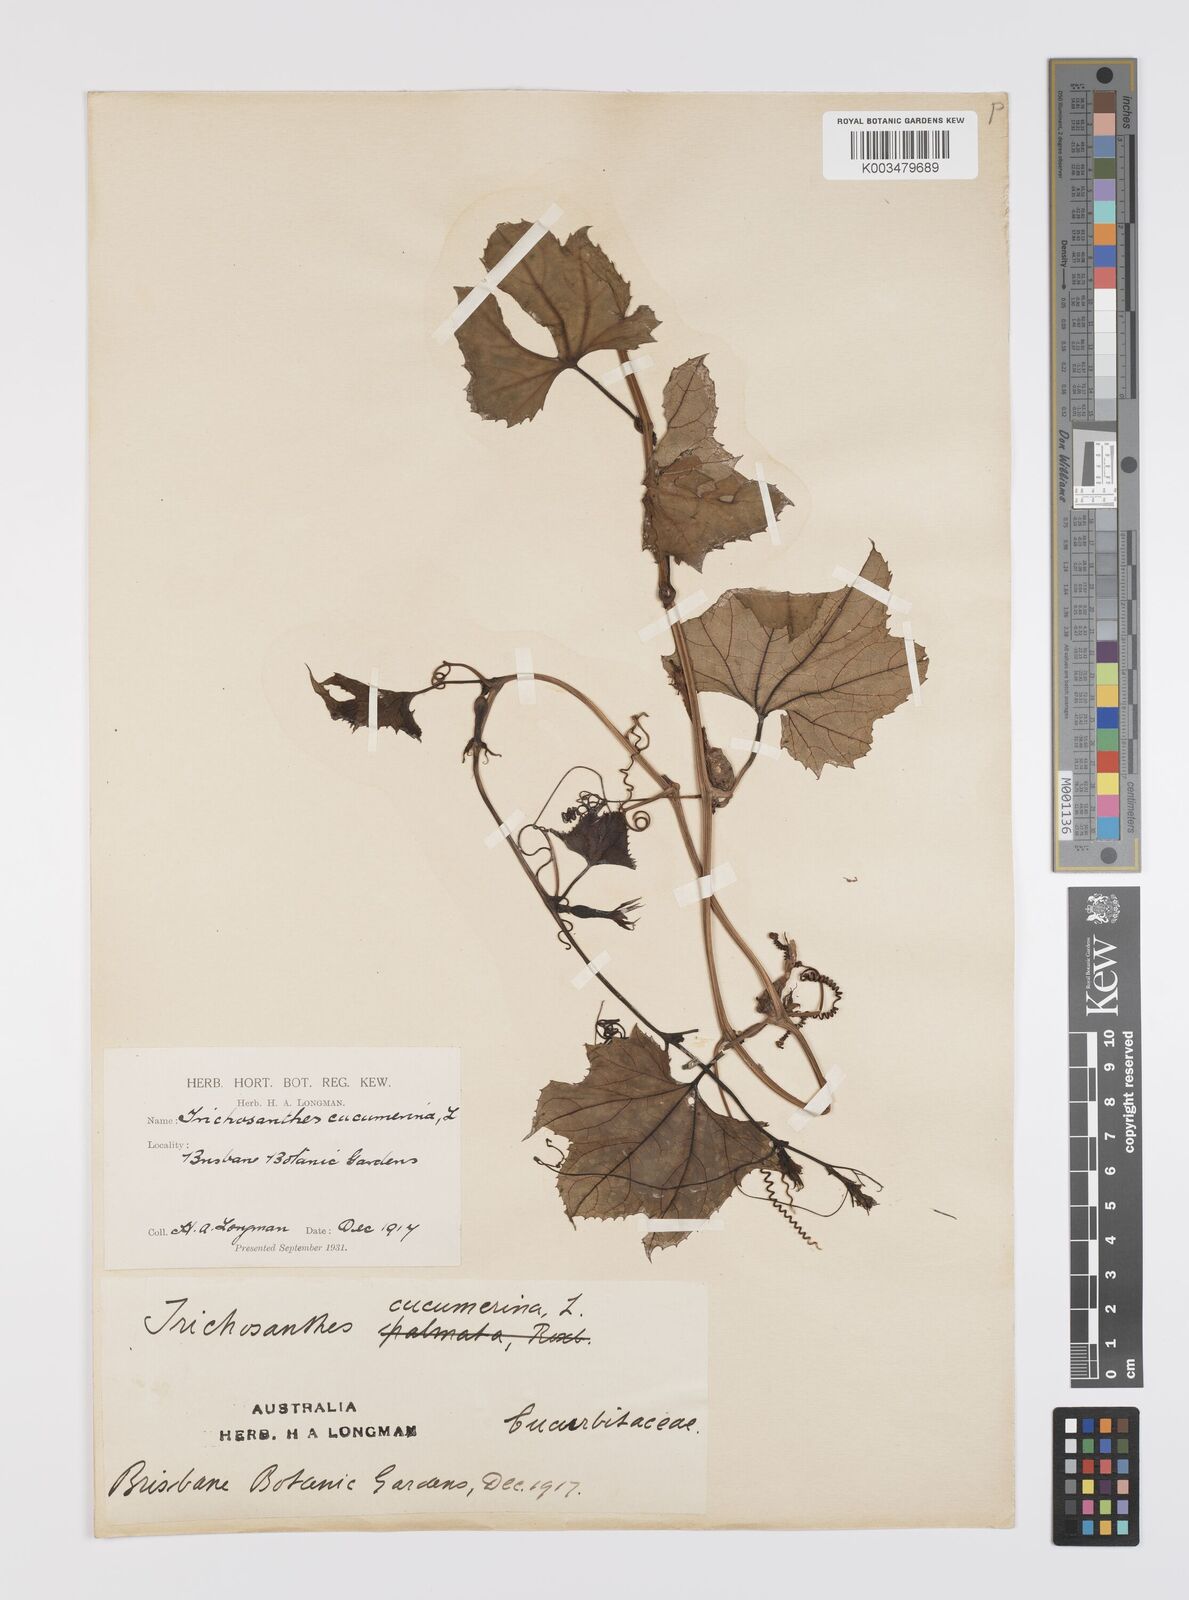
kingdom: Plantae
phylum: Tracheophyta
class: Magnoliopsida
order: Cucurbitales
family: Cucurbitaceae
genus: Trichosanthes
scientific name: Trichosanthes wallichiana
